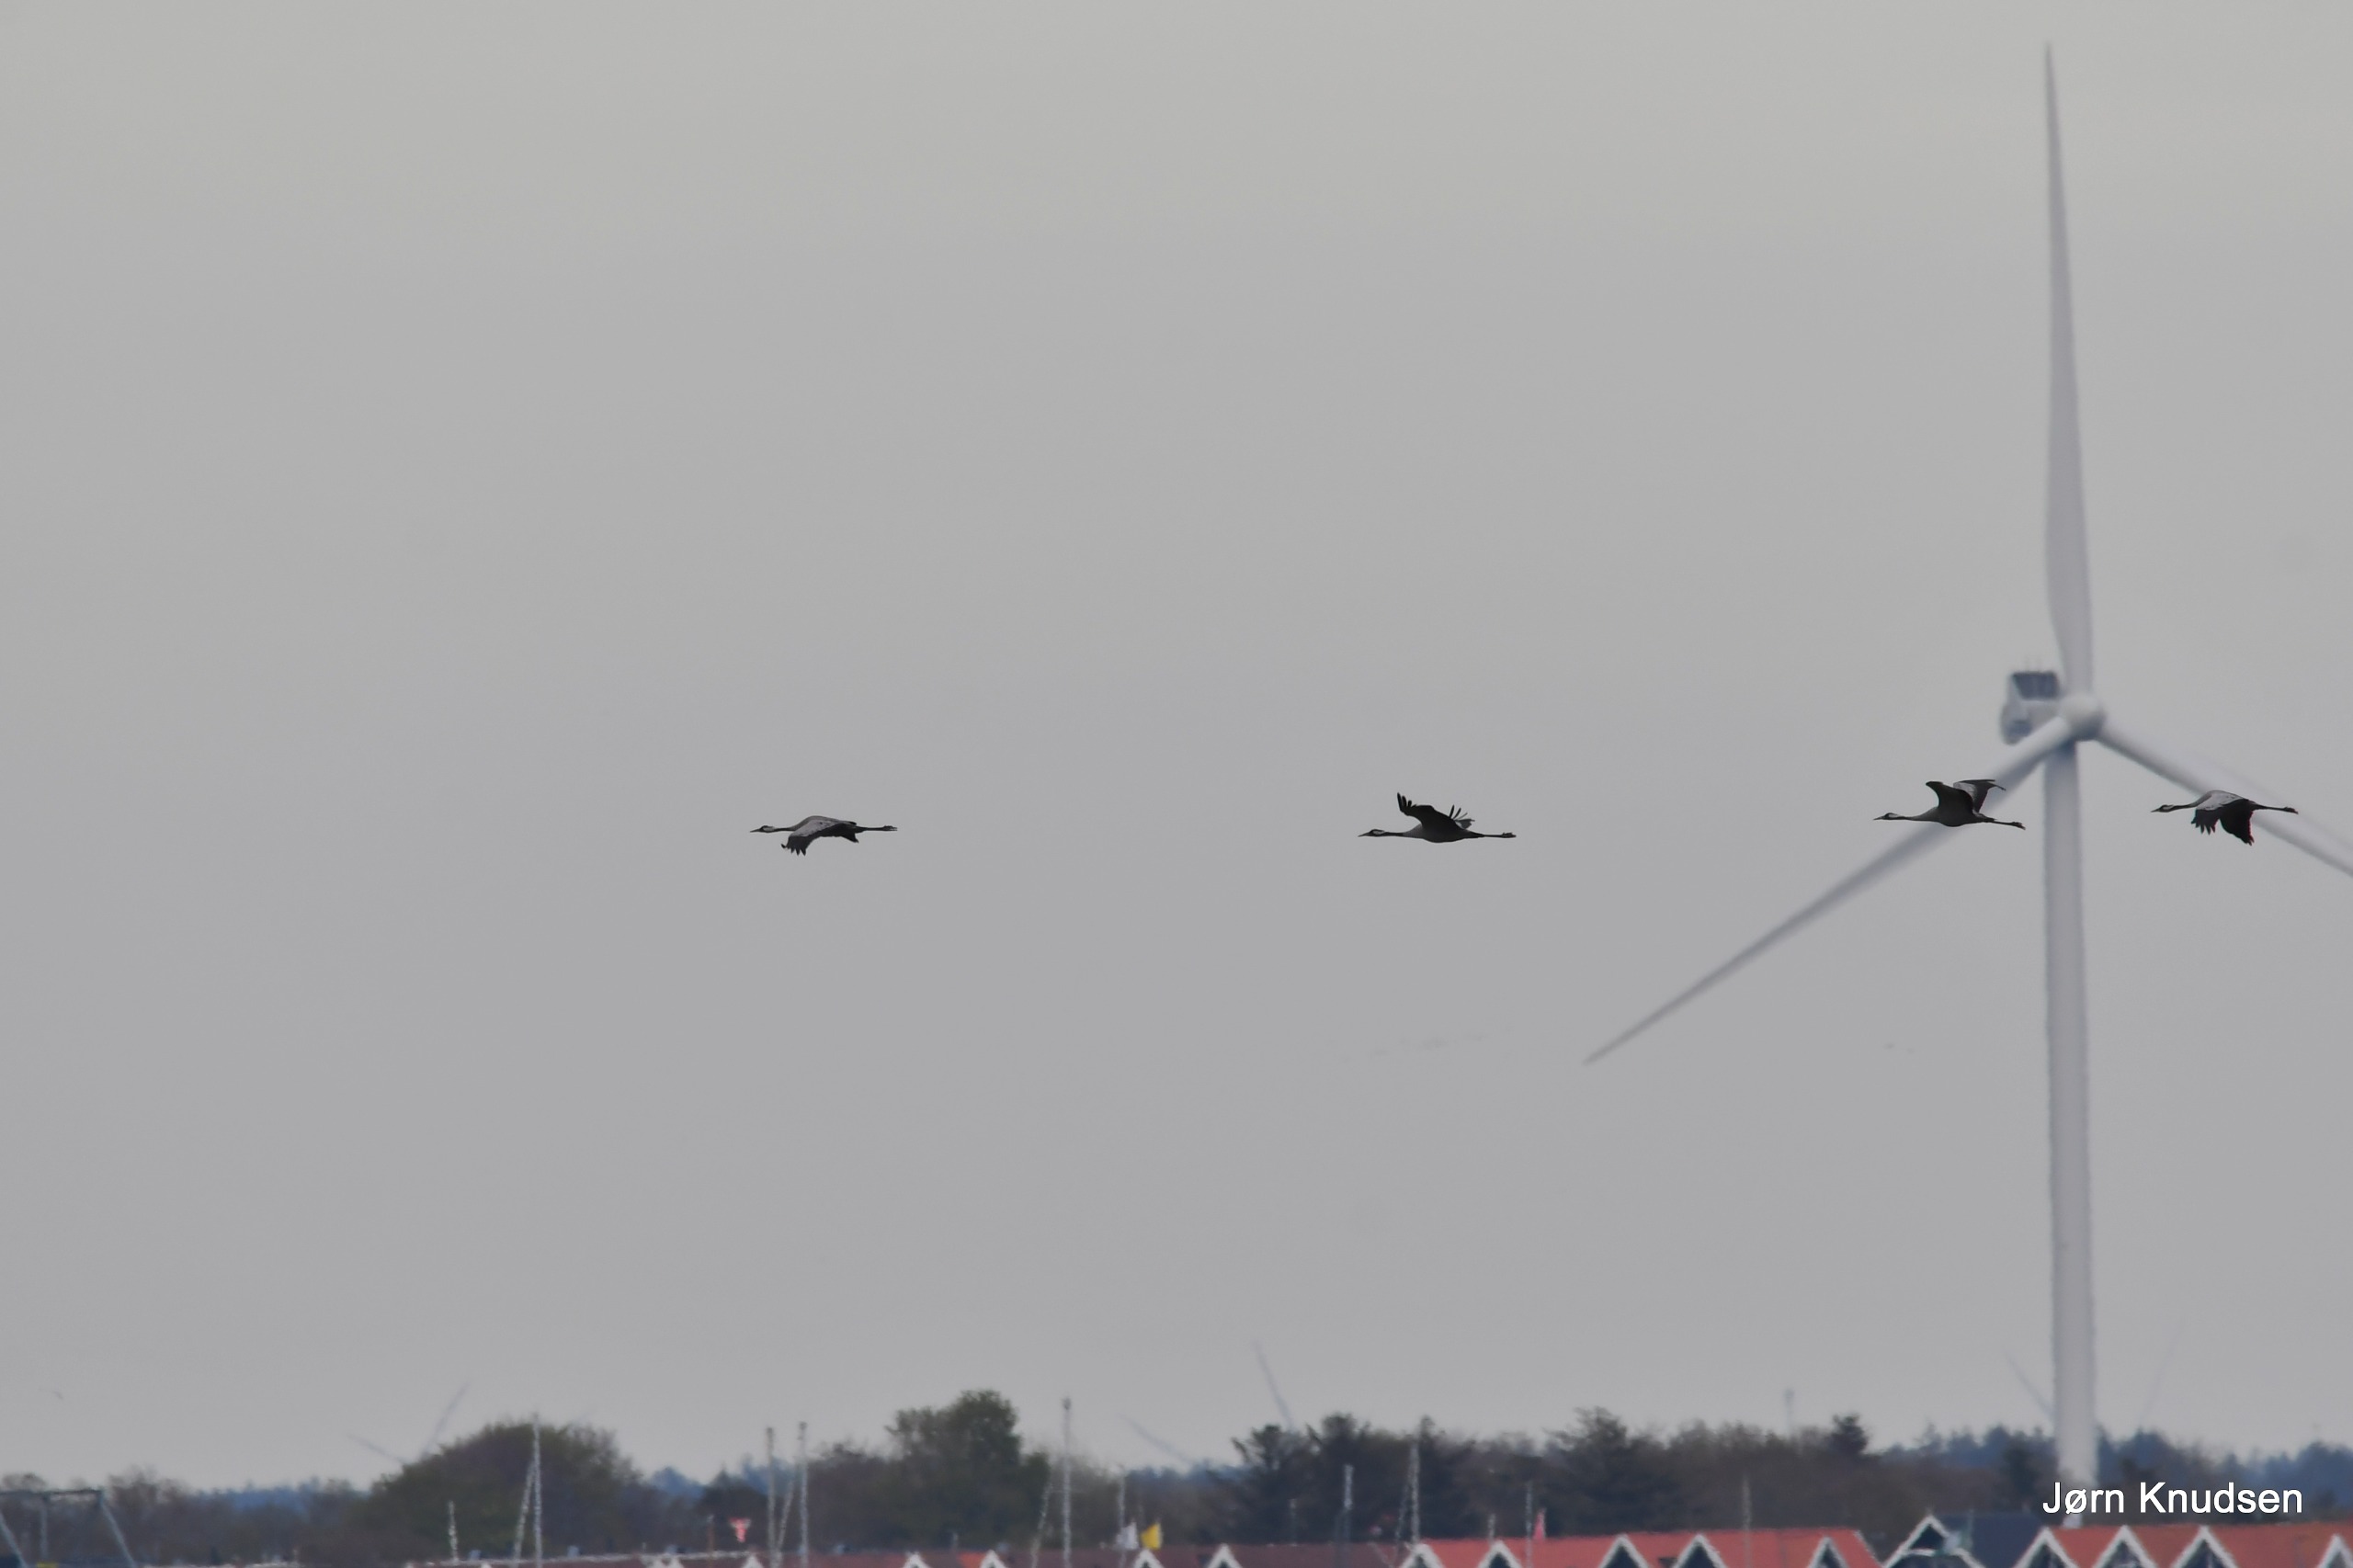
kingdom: Animalia
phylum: Chordata
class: Aves
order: Gruiformes
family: Gruidae
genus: Grus
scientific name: Grus grus
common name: Trane
